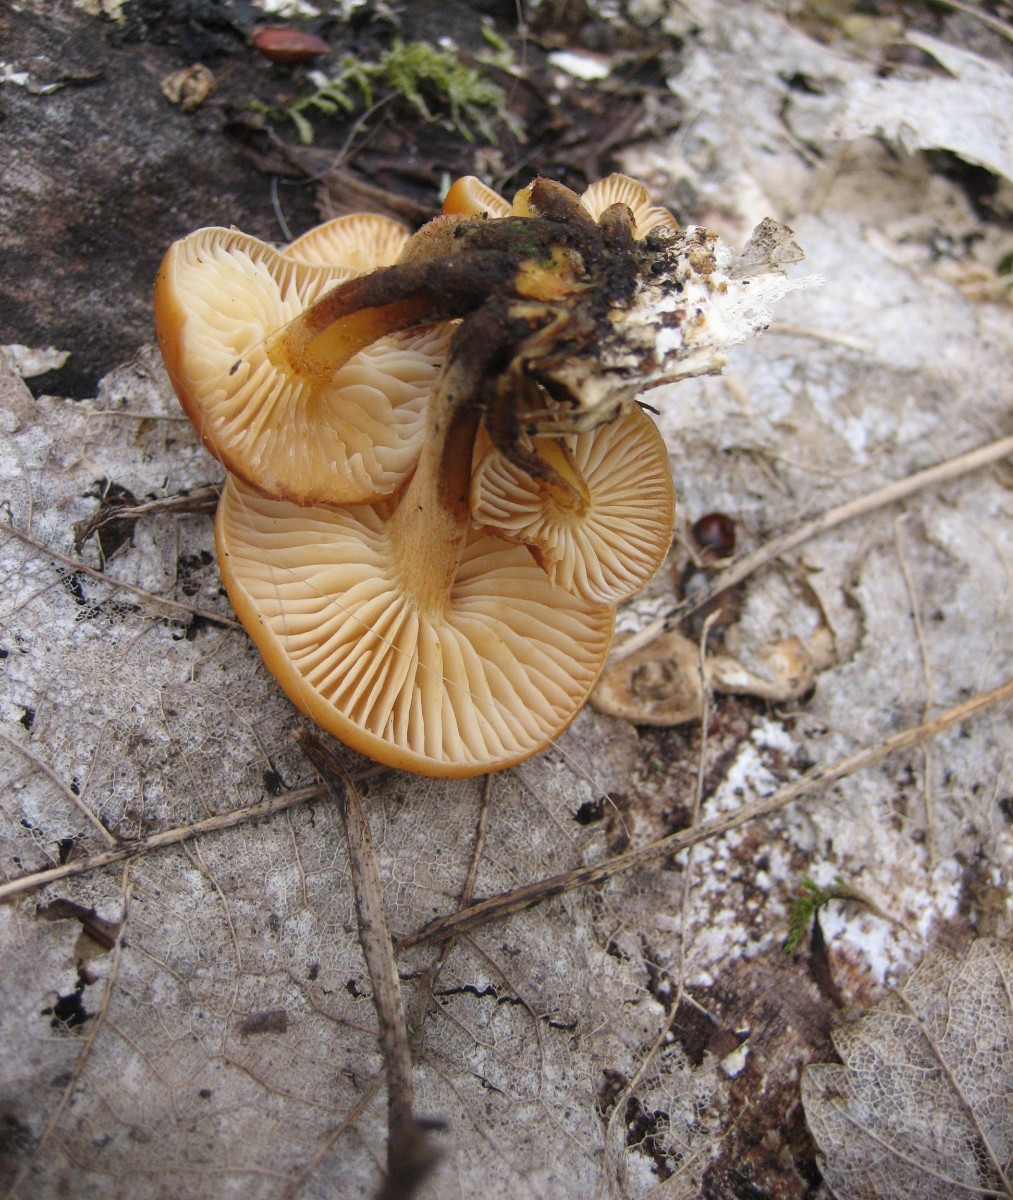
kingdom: Fungi
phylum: Basidiomycota
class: Agaricomycetes
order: Agaricales
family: Physalacriaceae
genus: Flammulina
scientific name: Flammulina
